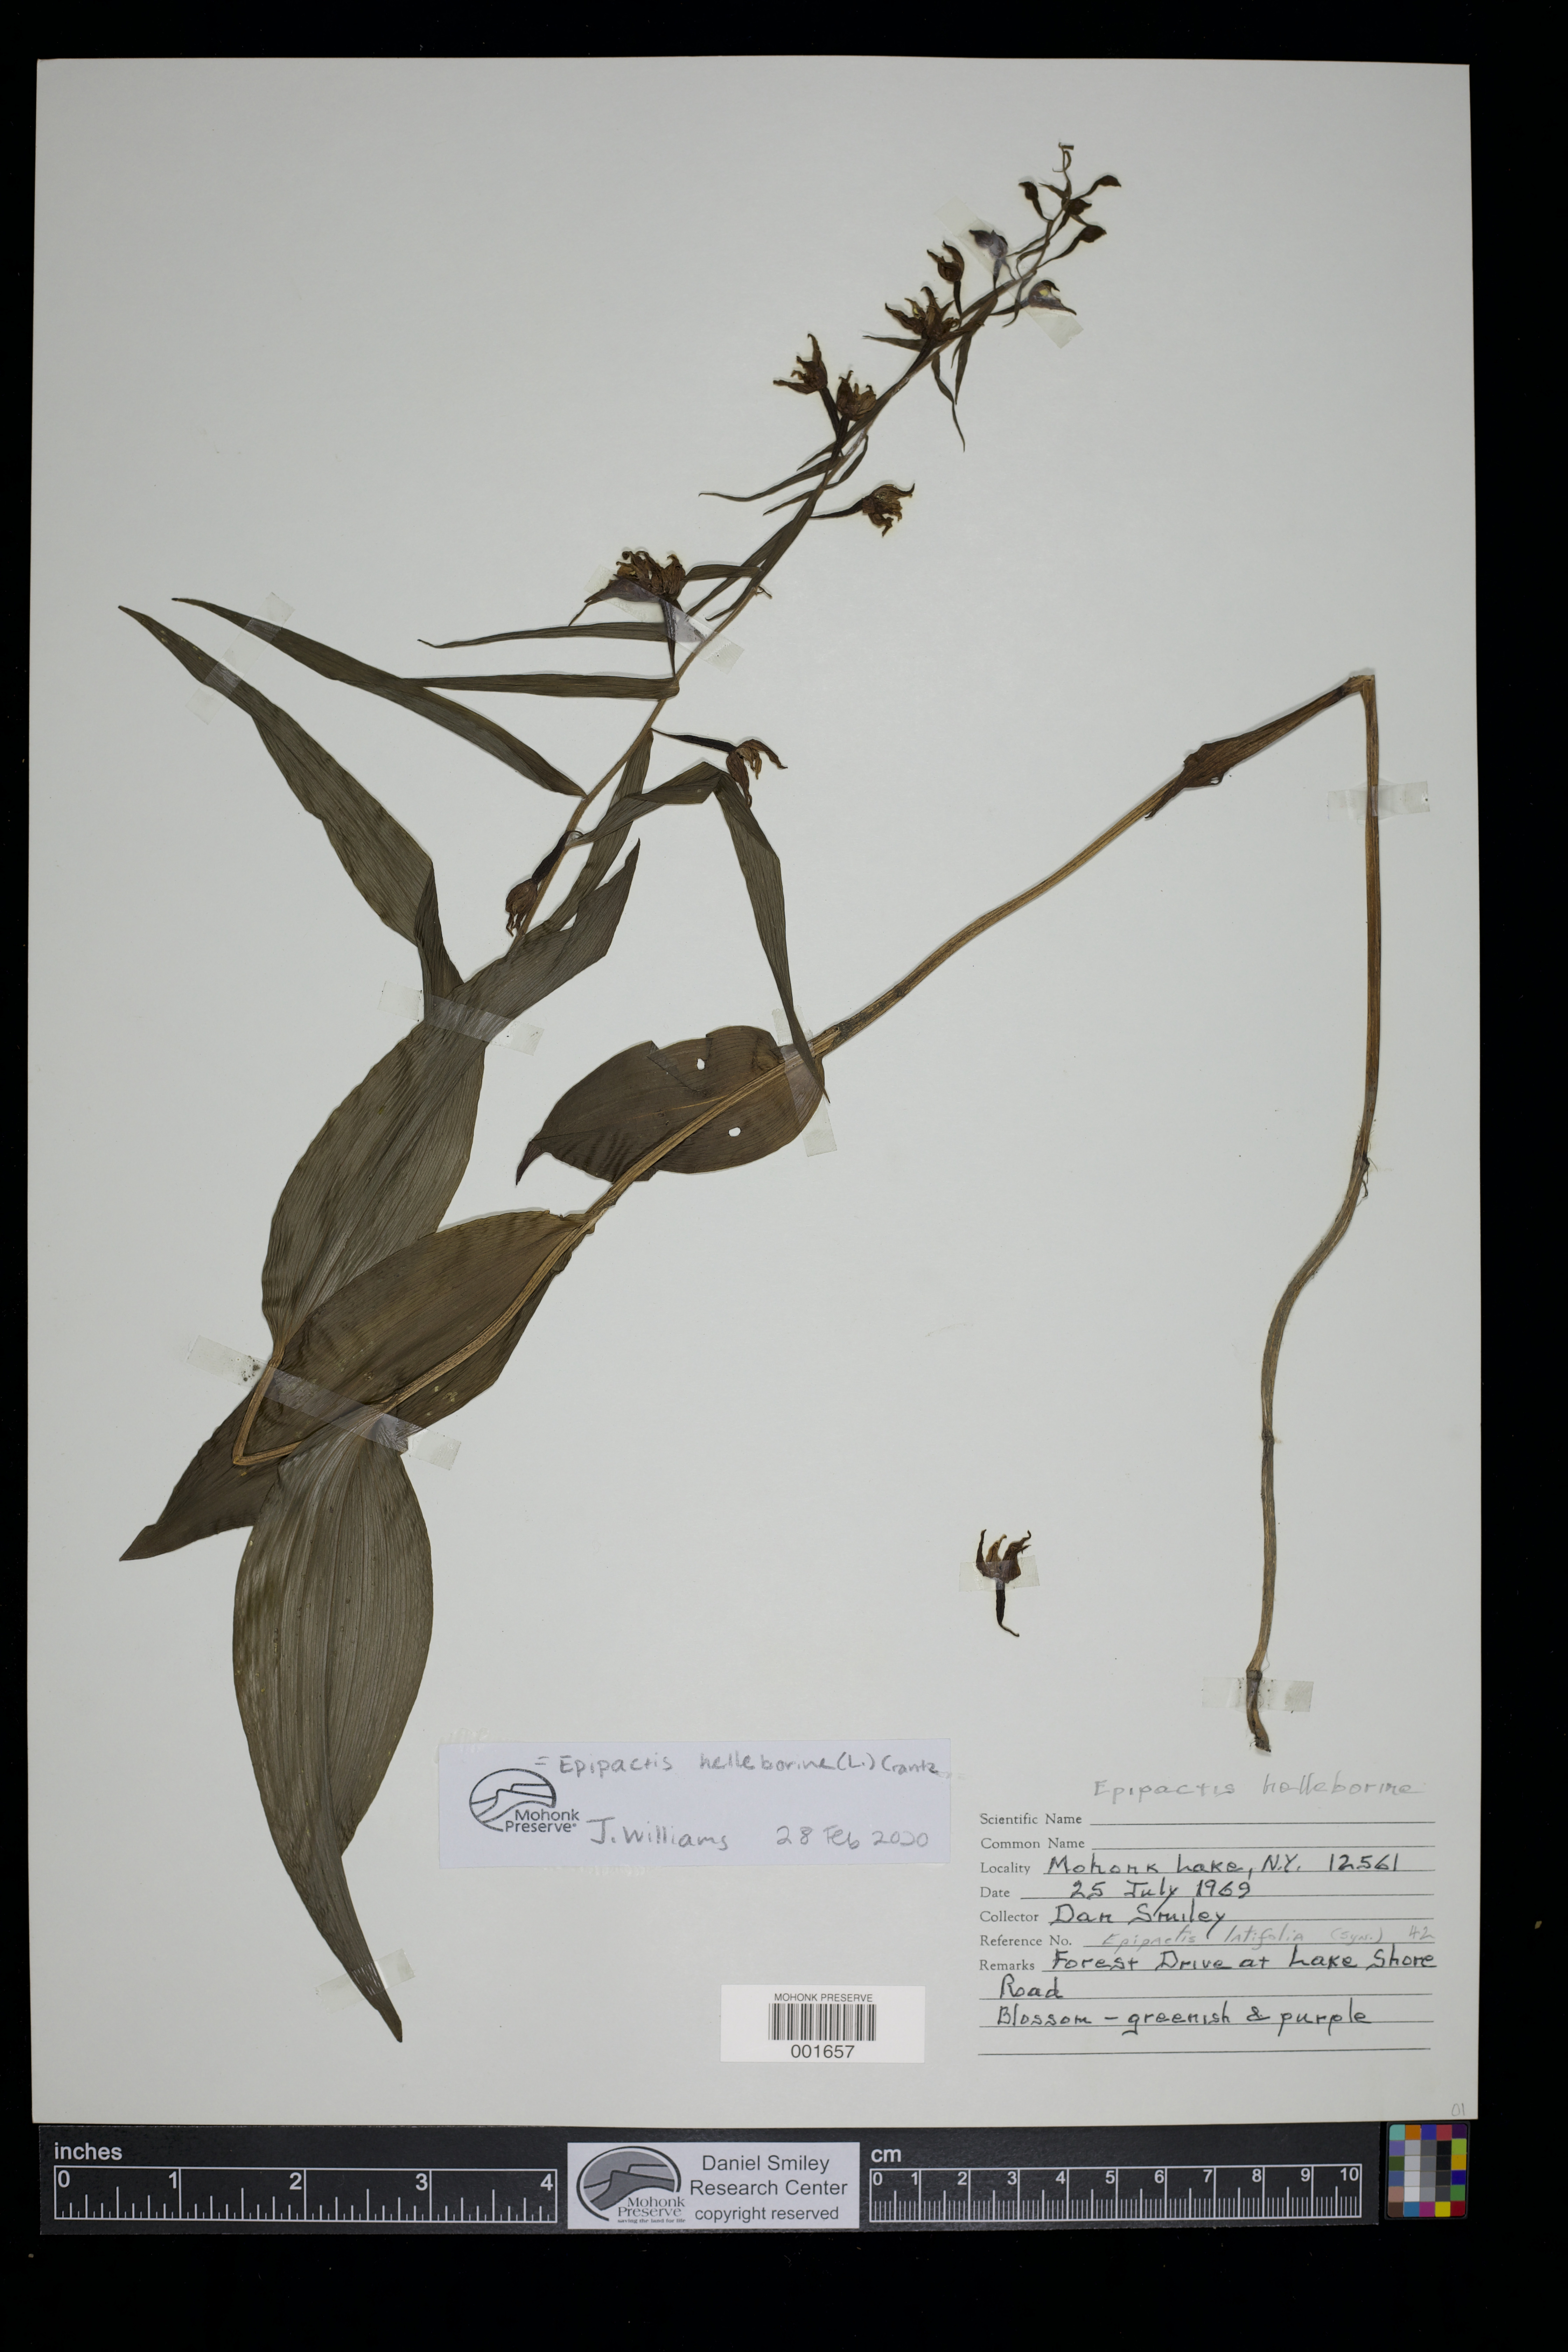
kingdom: Plantae
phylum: Tracheophyta
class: Liliopsida
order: Asparagales
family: Orchidaceae
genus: Epipactis
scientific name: Epipactis helleborine
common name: Broad-leaved helleborine
